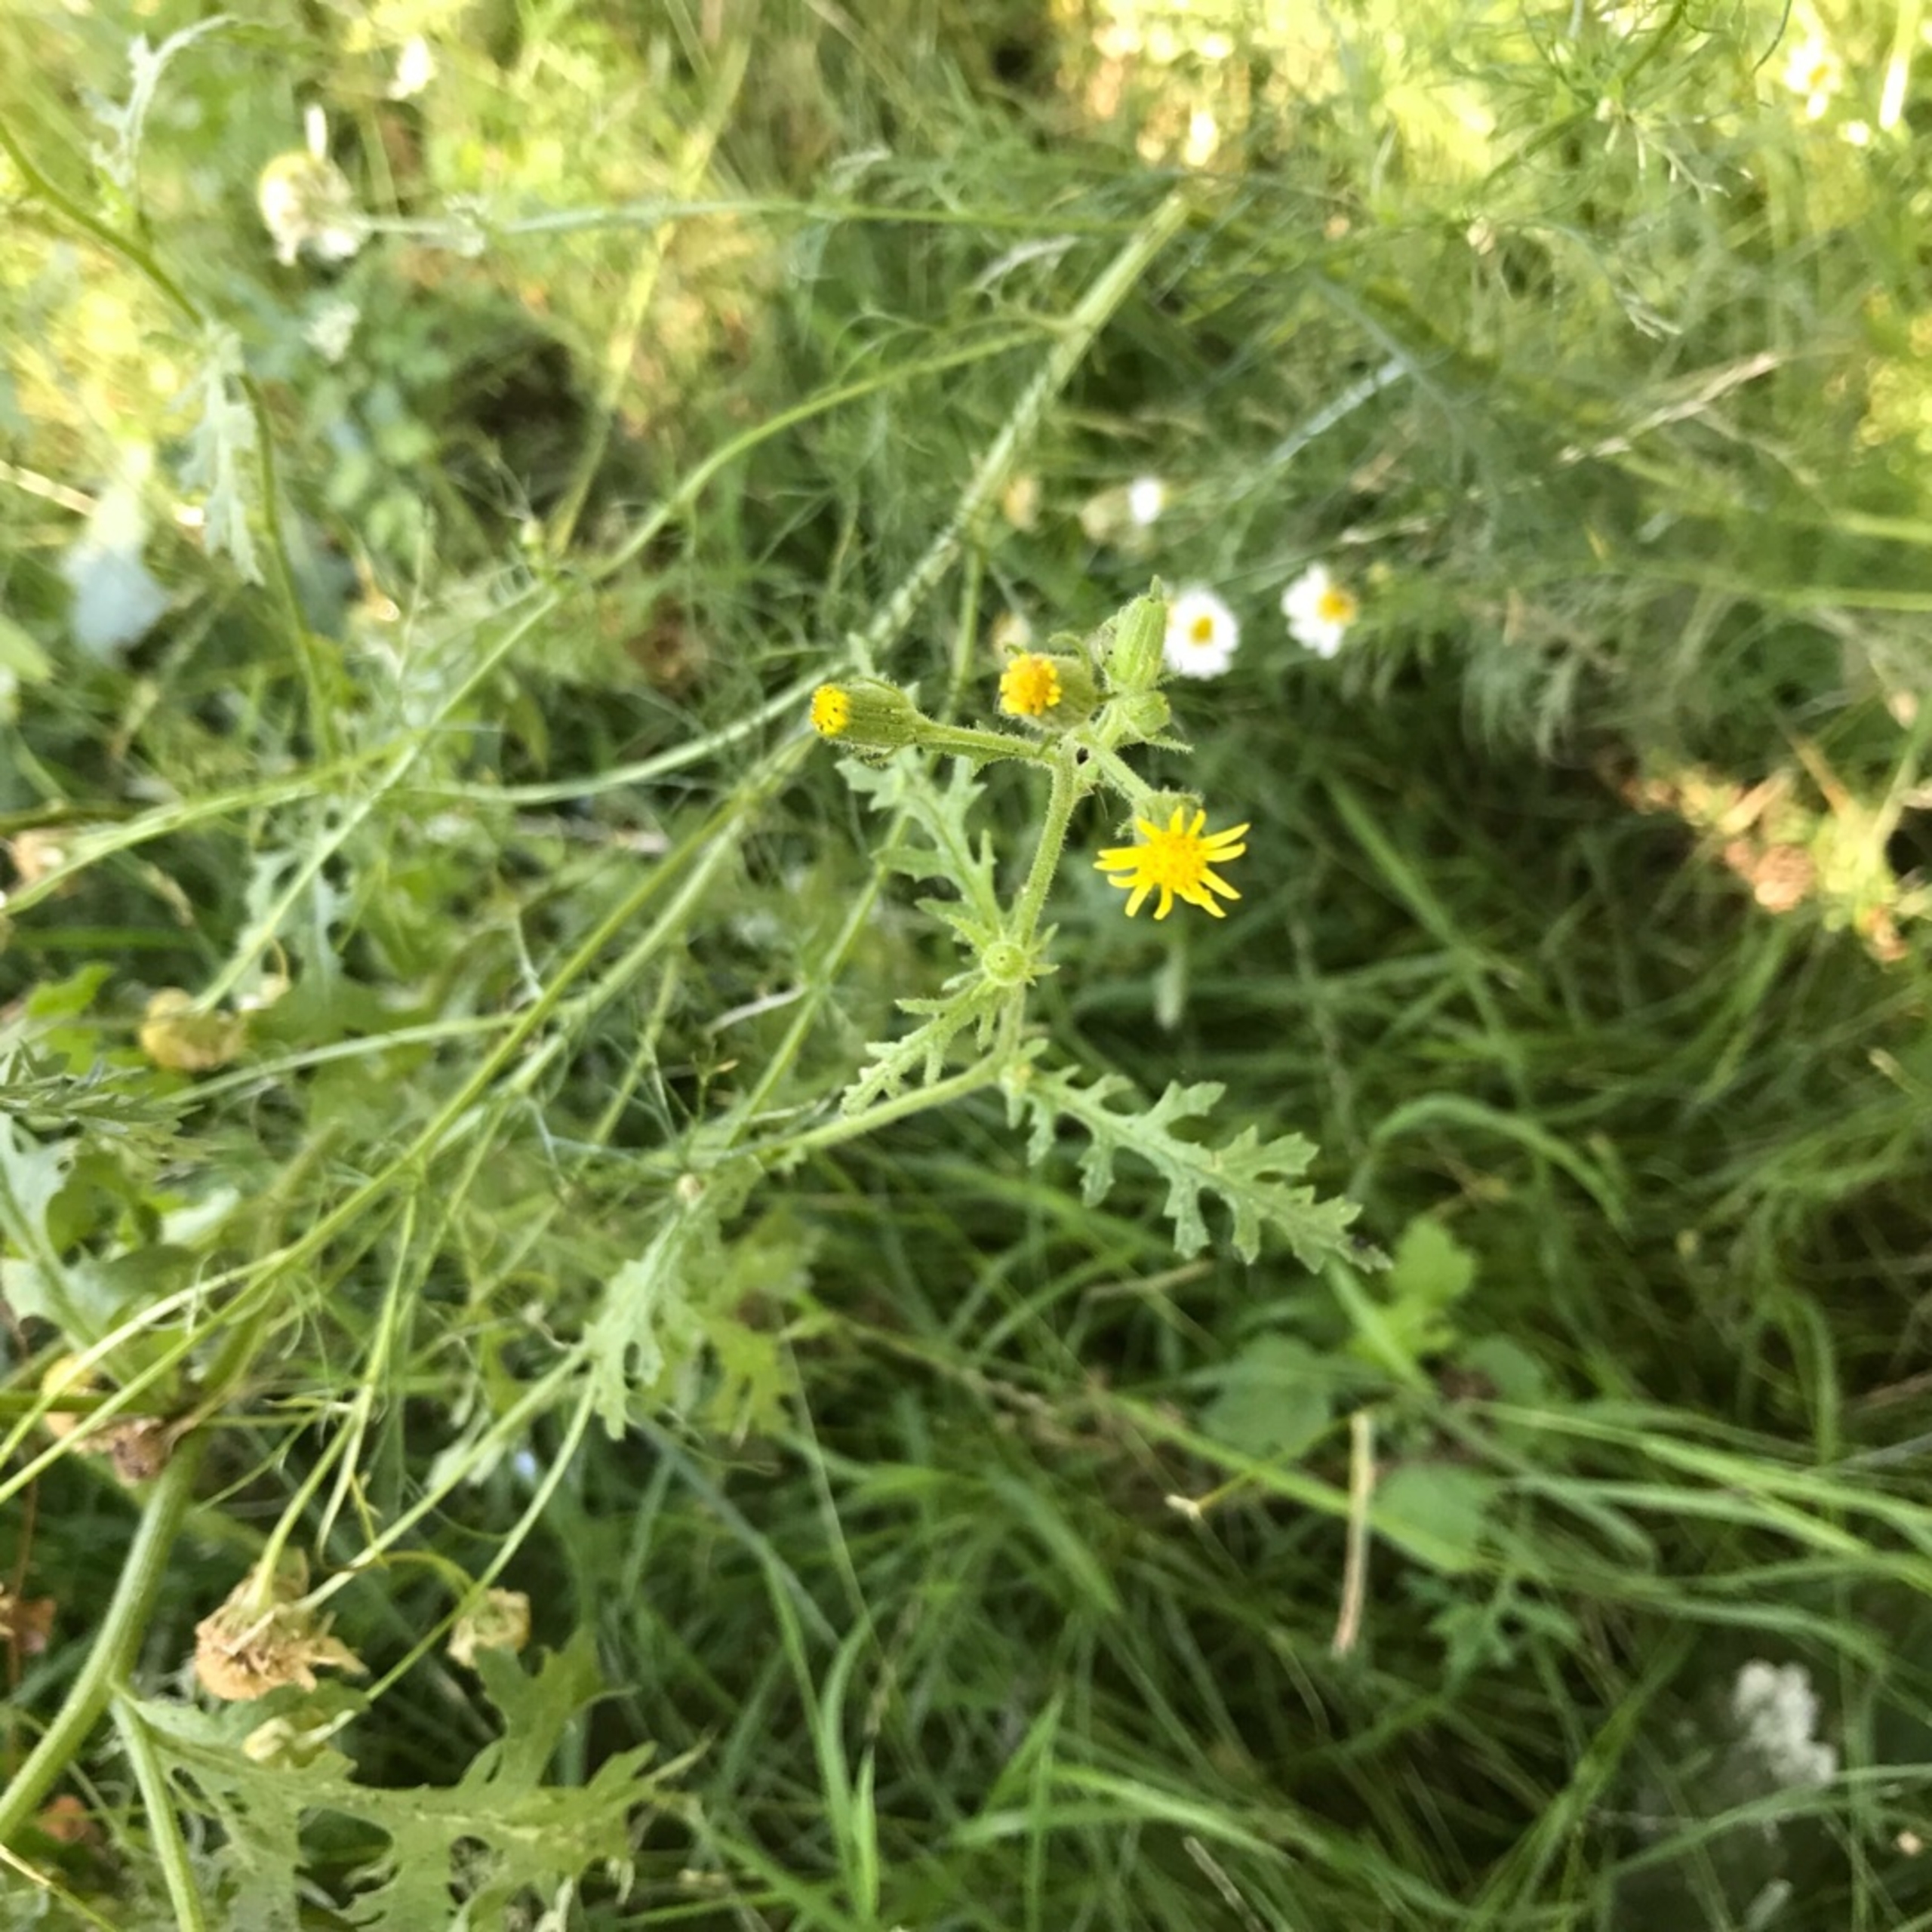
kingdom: Plantae
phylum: Tracheophyta
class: Magnoliopsida
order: Asterales
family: Asteraceae
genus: Senecio
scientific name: Senecio viscosus
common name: Klæbrig brandbæger
